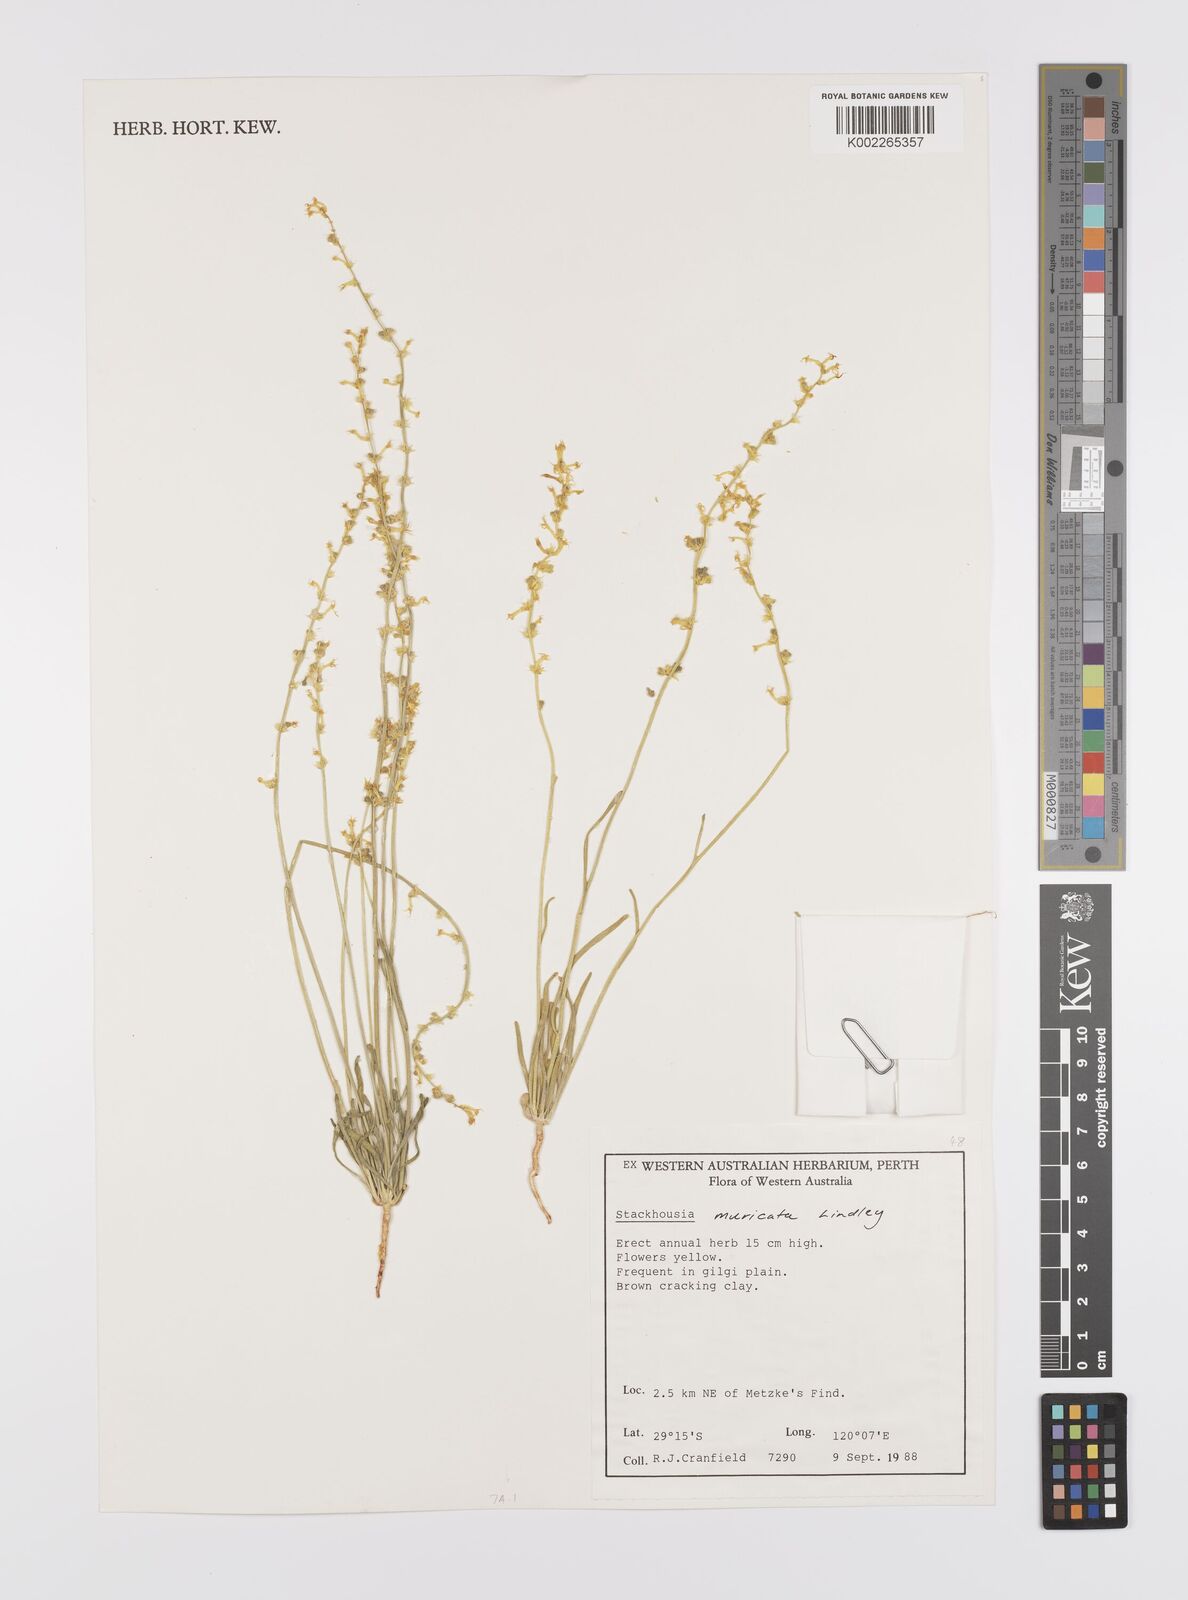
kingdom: Plantae
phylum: Tracheophyta
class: Magnoliopsida
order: Celastrales
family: Celastraceae
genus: Stackhousia
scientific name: Stackhousia muricata
